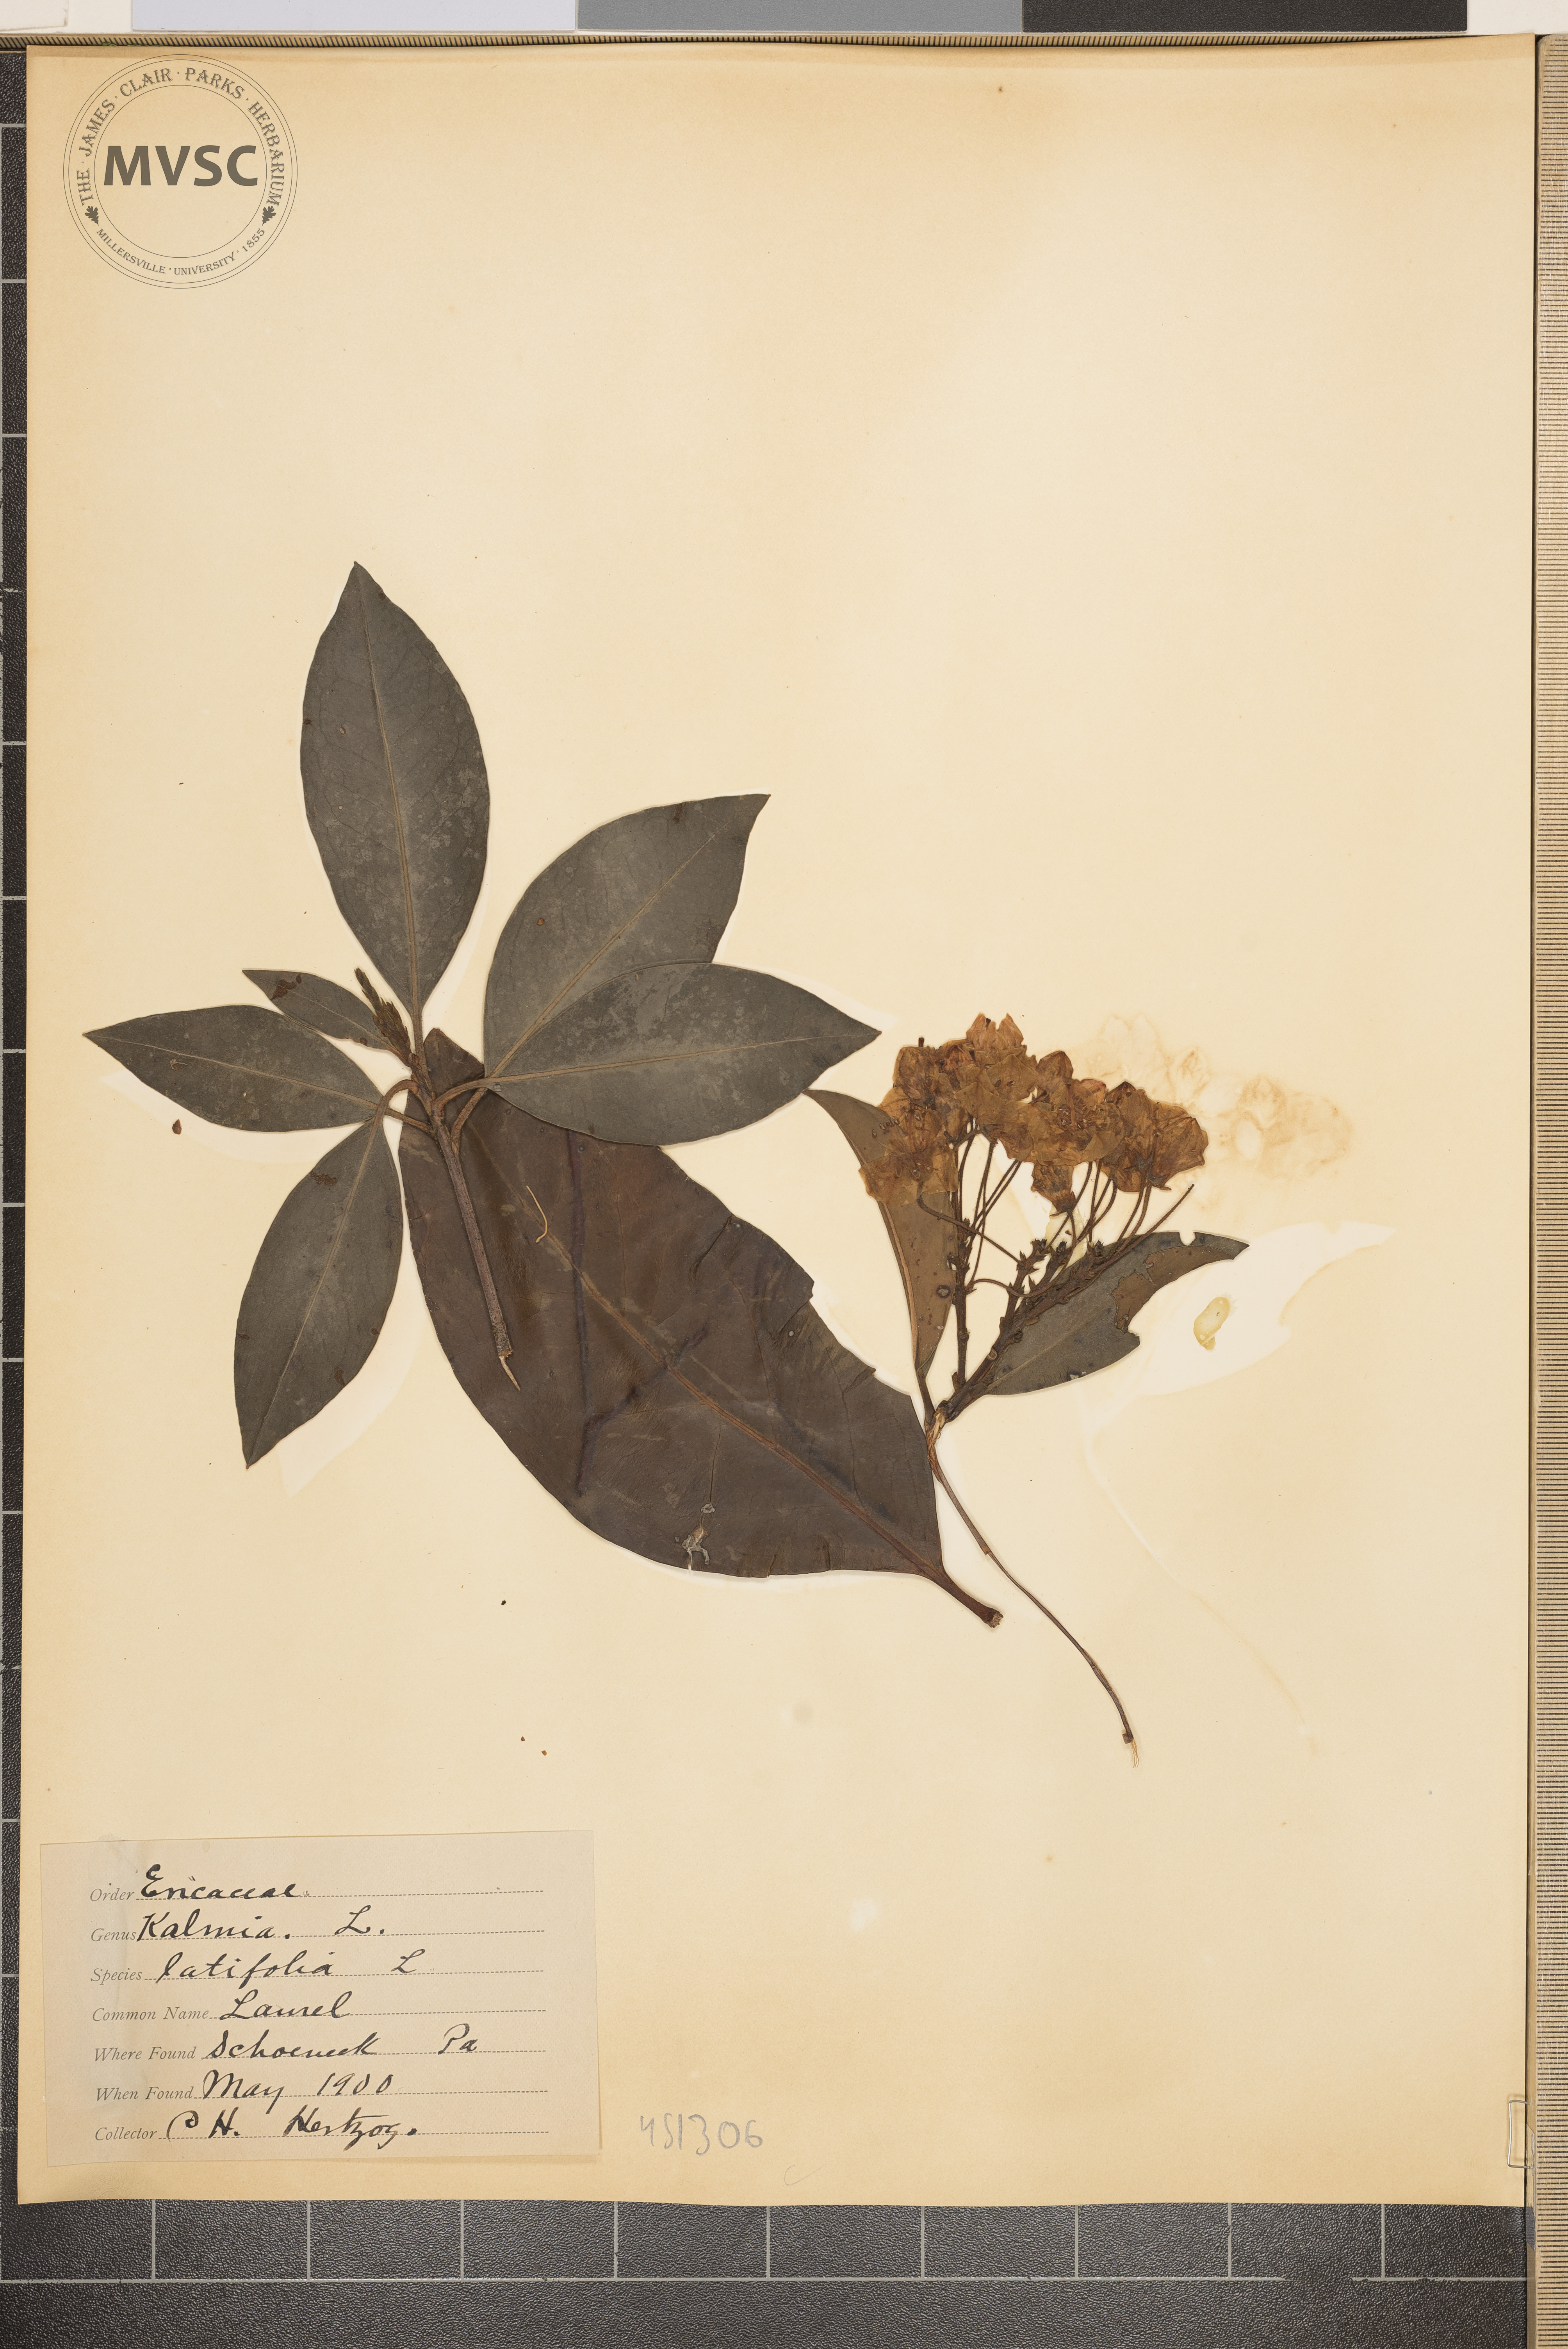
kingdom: Plantae
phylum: Tracheophyta
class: Magnoliopsida
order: Ericales
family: Ericaceae
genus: Kalmia
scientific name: Kalmia latifolia
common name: Laurel
